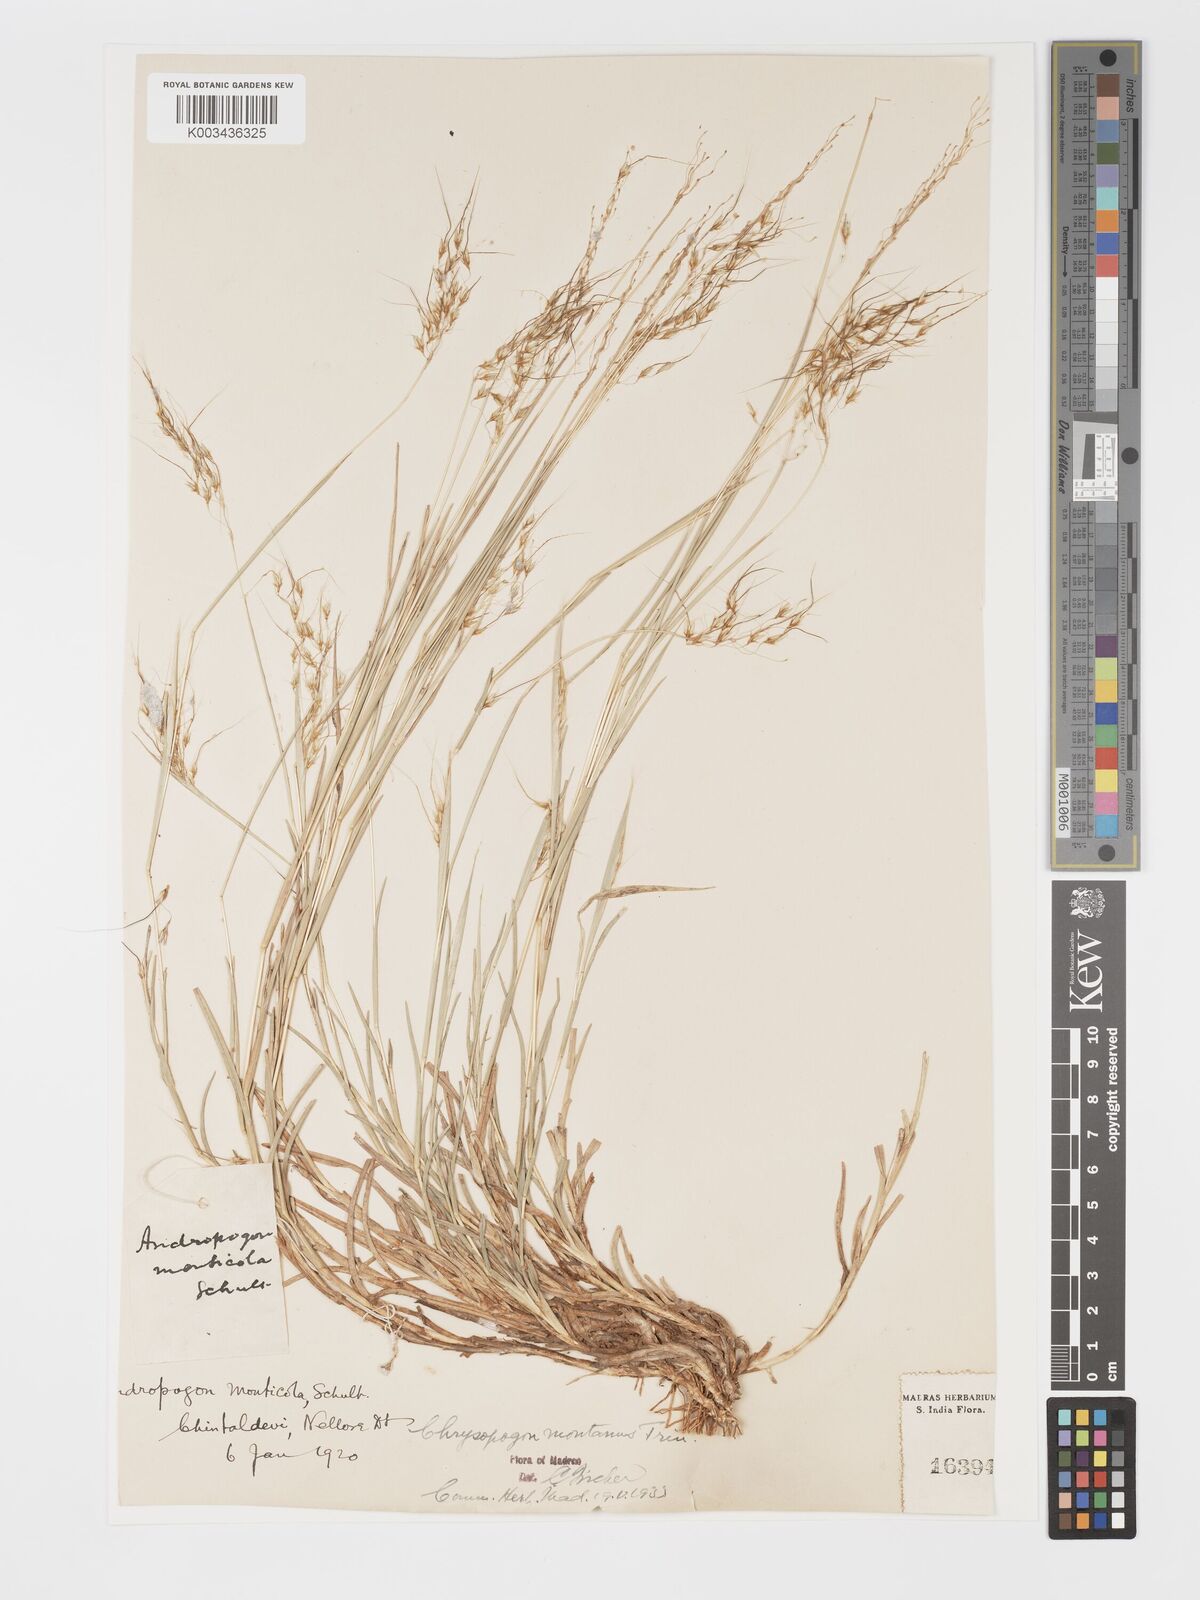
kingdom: Plantae
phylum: Tracheophyta
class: Liliopsida
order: Poales
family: Poaceae
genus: Chrysopogon
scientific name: Chrysopogon fulvus
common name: Red false beardgrass
